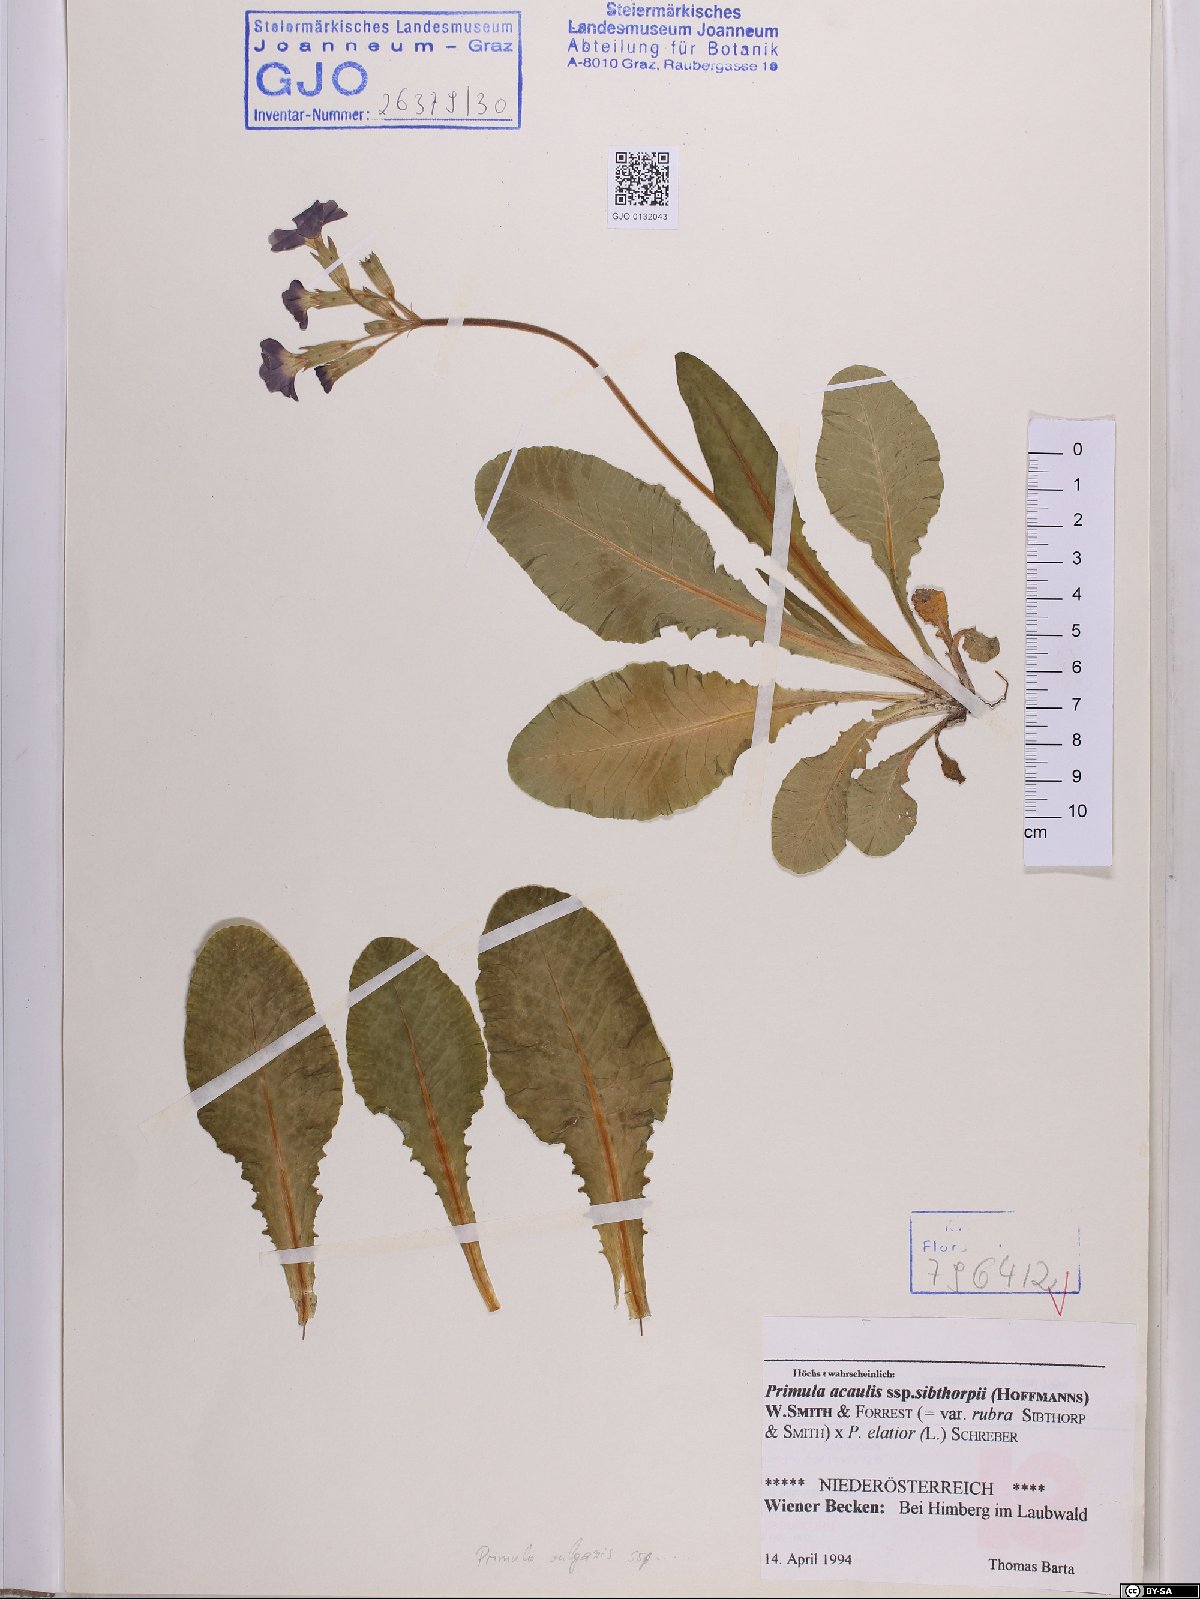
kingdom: Plantae
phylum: Tracheophyta
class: Magnoliopsida
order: Ericales
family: Primulaceae
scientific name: Primulaceae
